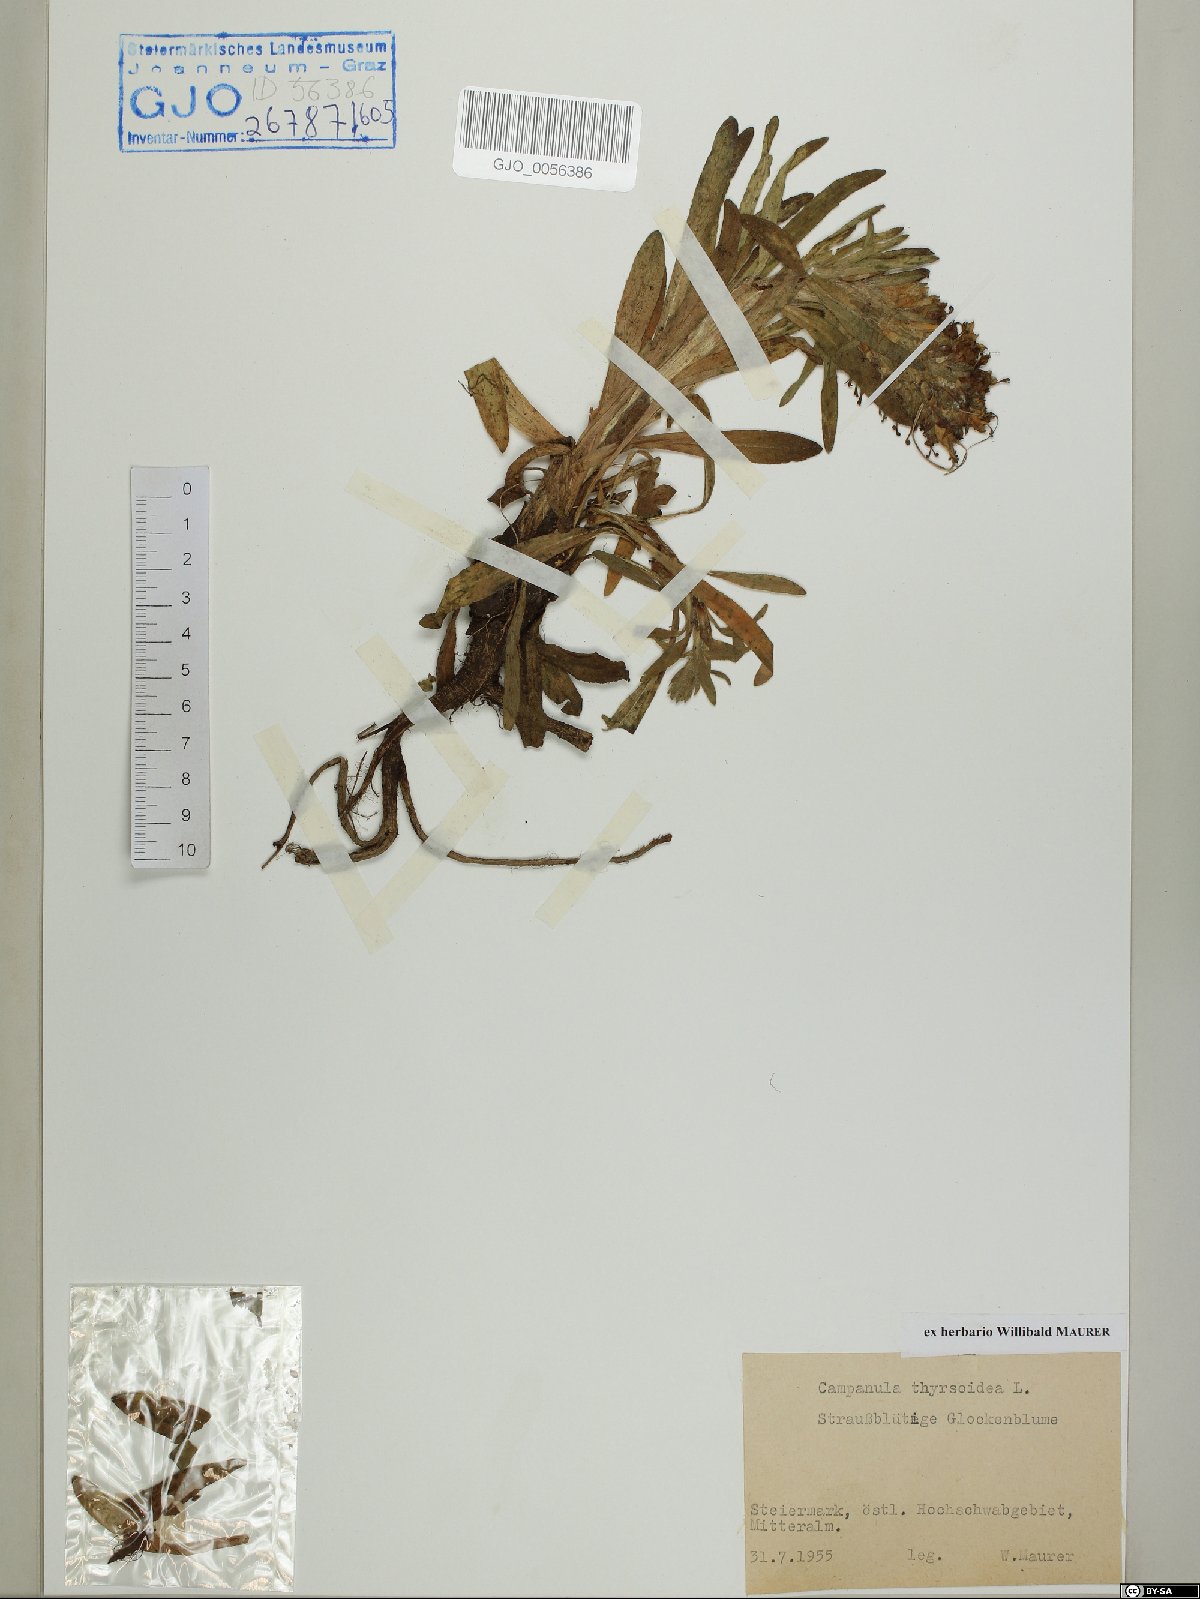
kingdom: Plantae
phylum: Tracheophyta
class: Magnoliopsida
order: Asterales
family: Campanulaceae
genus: Campanula
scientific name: Campanula thyrsoides
